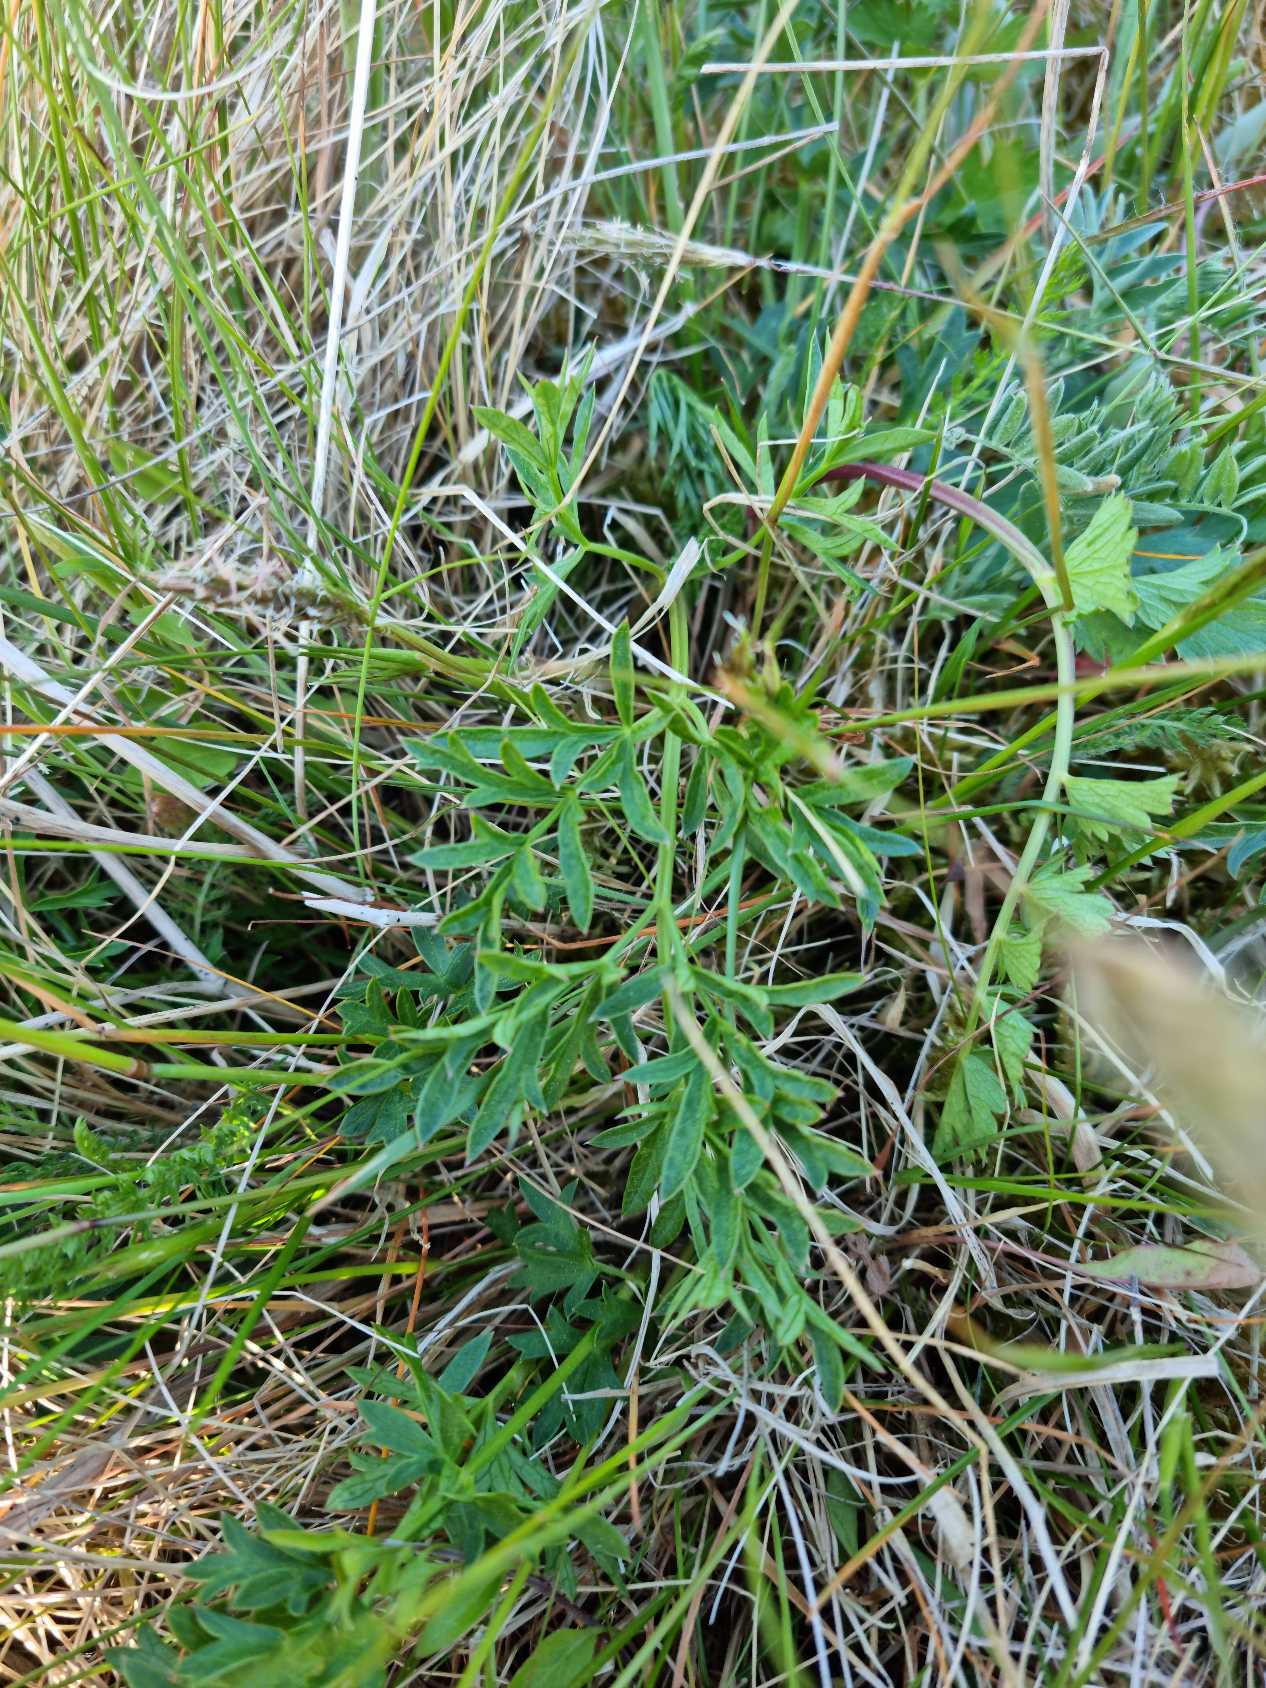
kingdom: Plantae
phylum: Tracheophyta
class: Magnoliopsida
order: Apiales
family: Apiaceae
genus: Pimpinella
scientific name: Pimpinella saxifraga
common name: Almindelig pimpinelle
